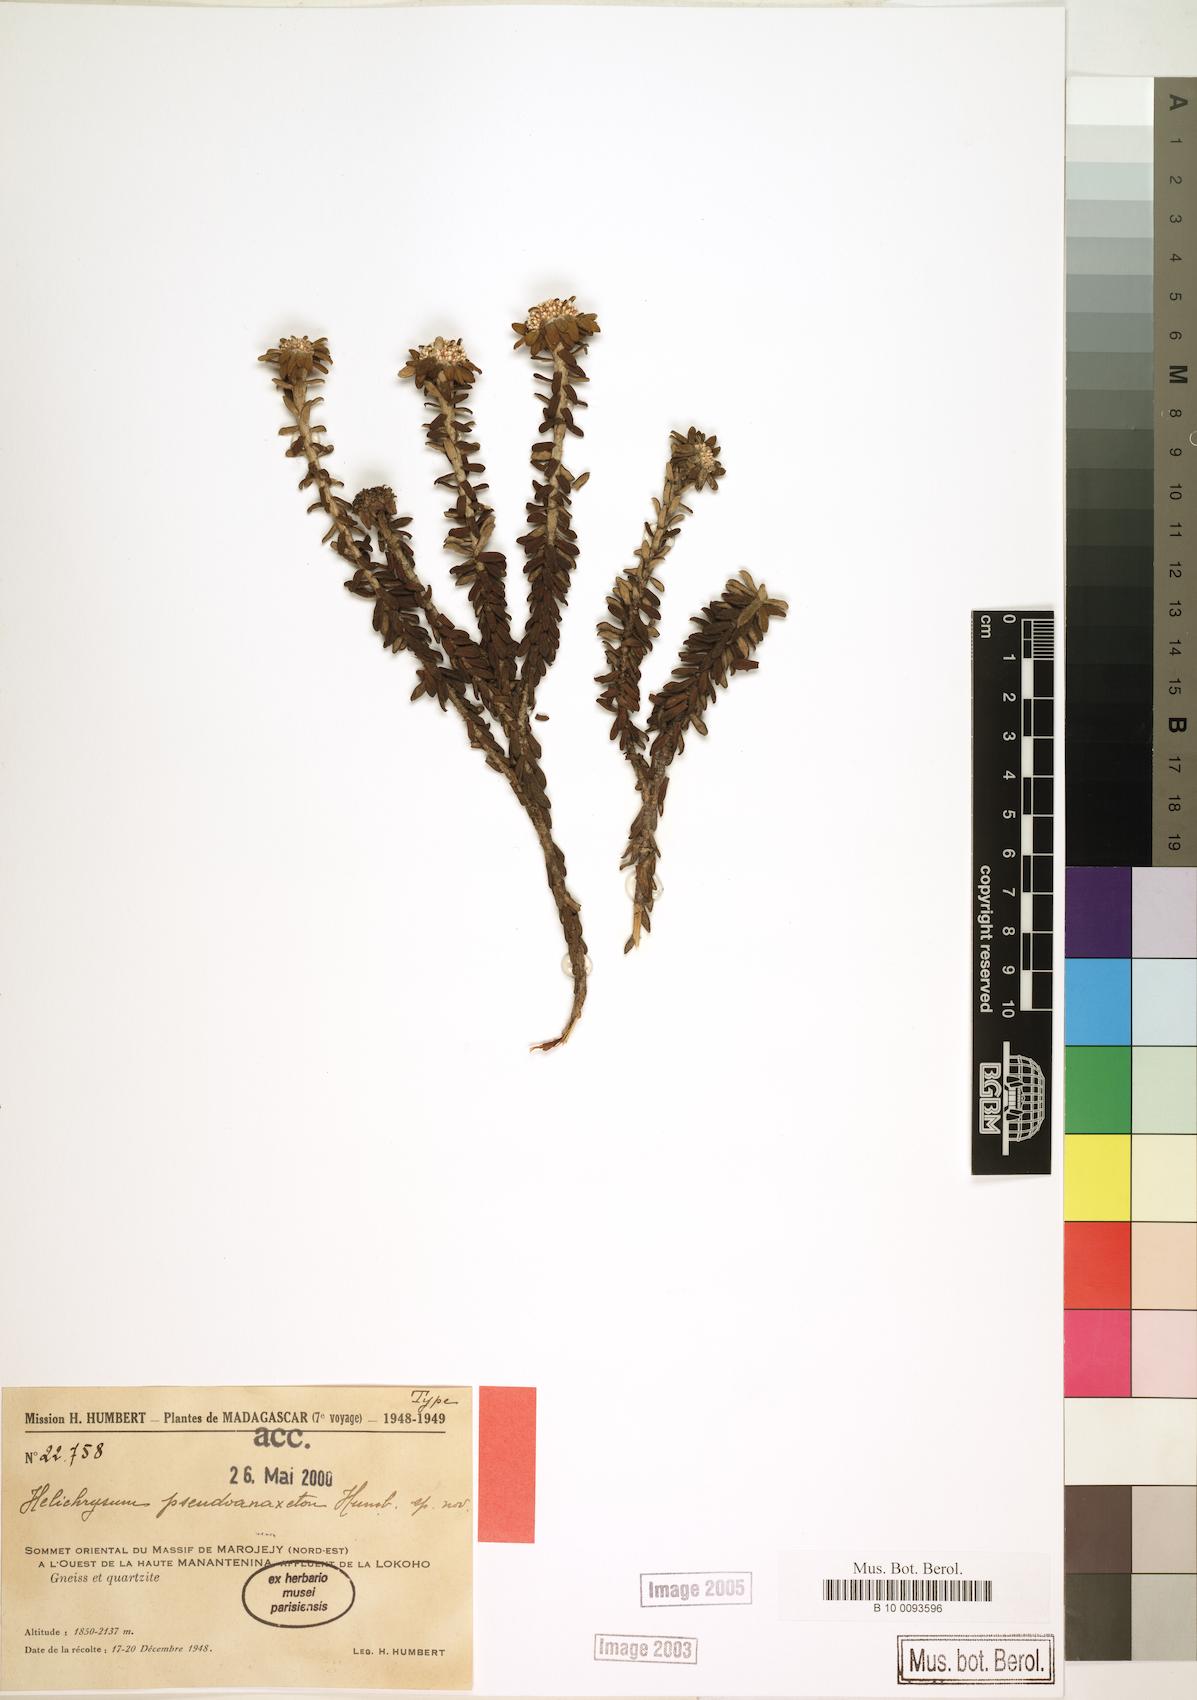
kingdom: Plantae
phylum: Tracheophyta
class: Magnoliopsida
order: Asterales
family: Asteraceae
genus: Helichrysum
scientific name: Helichrysum pseudoanaxeton
